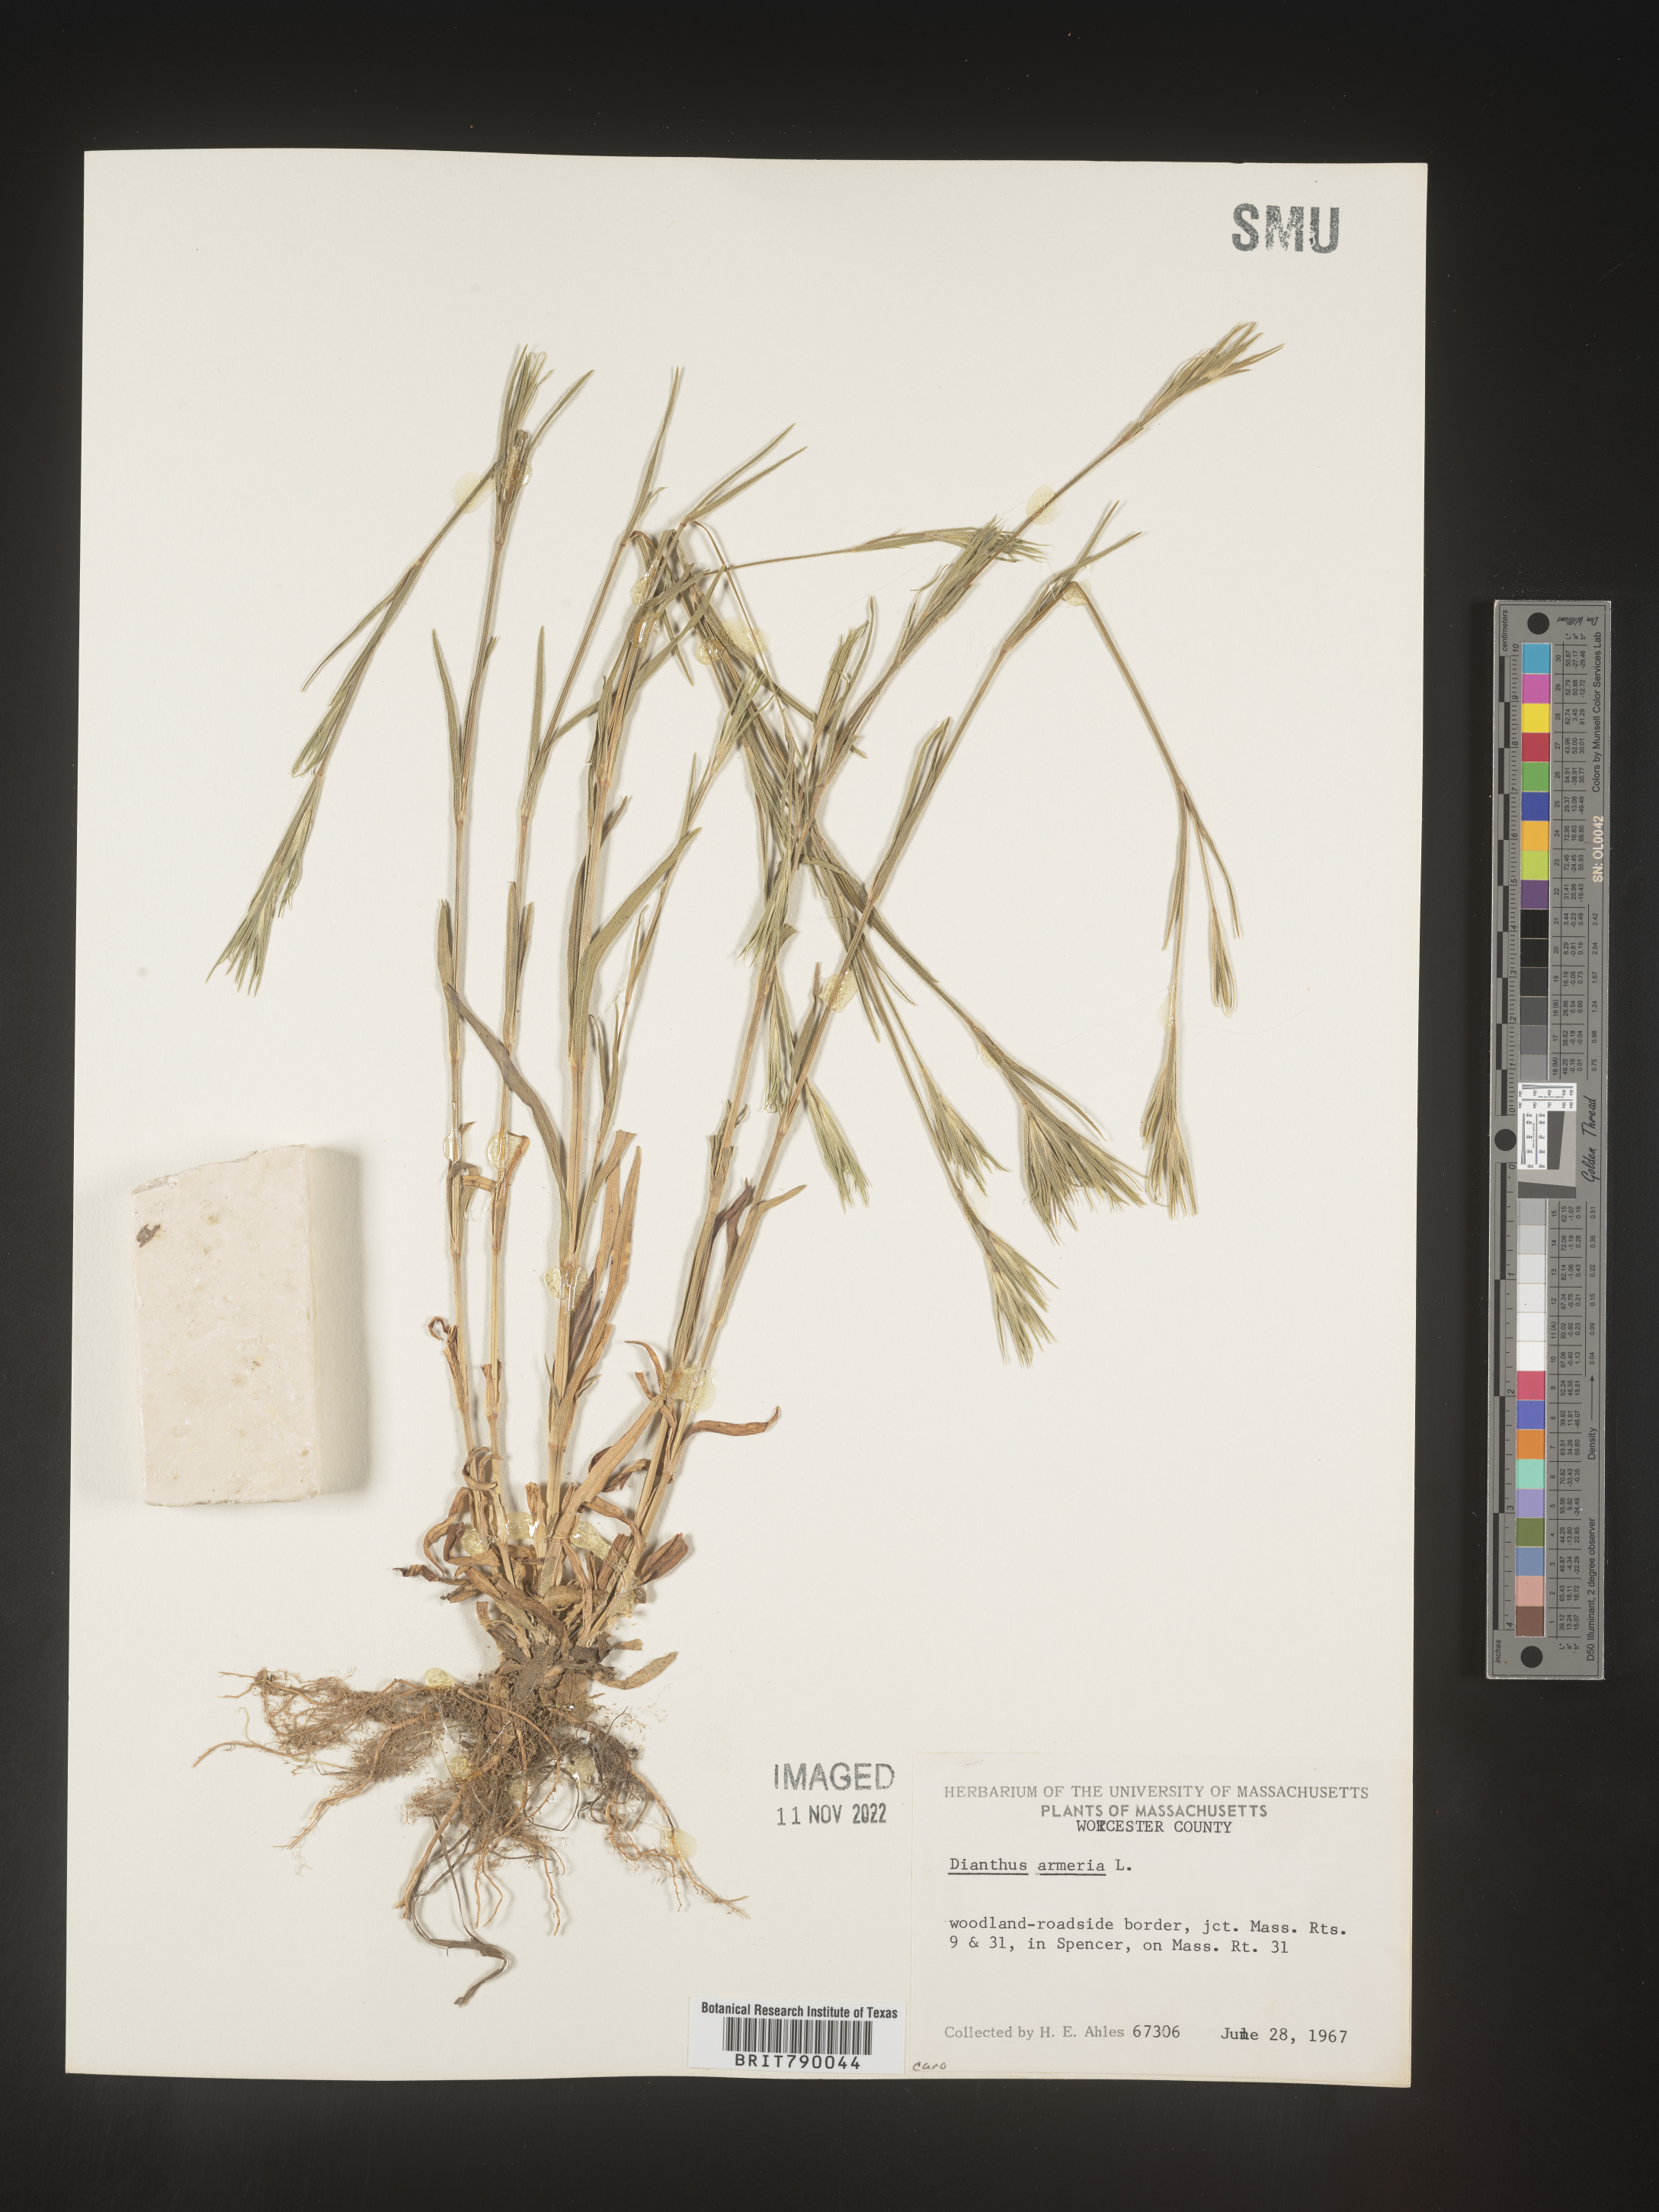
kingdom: Plantae
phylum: Tracheophyta
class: Magnoliopsida
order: Caryophyllales
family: Caryophyllaceae
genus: Dianthus
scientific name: Dianthus armeria
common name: Deptford pink
